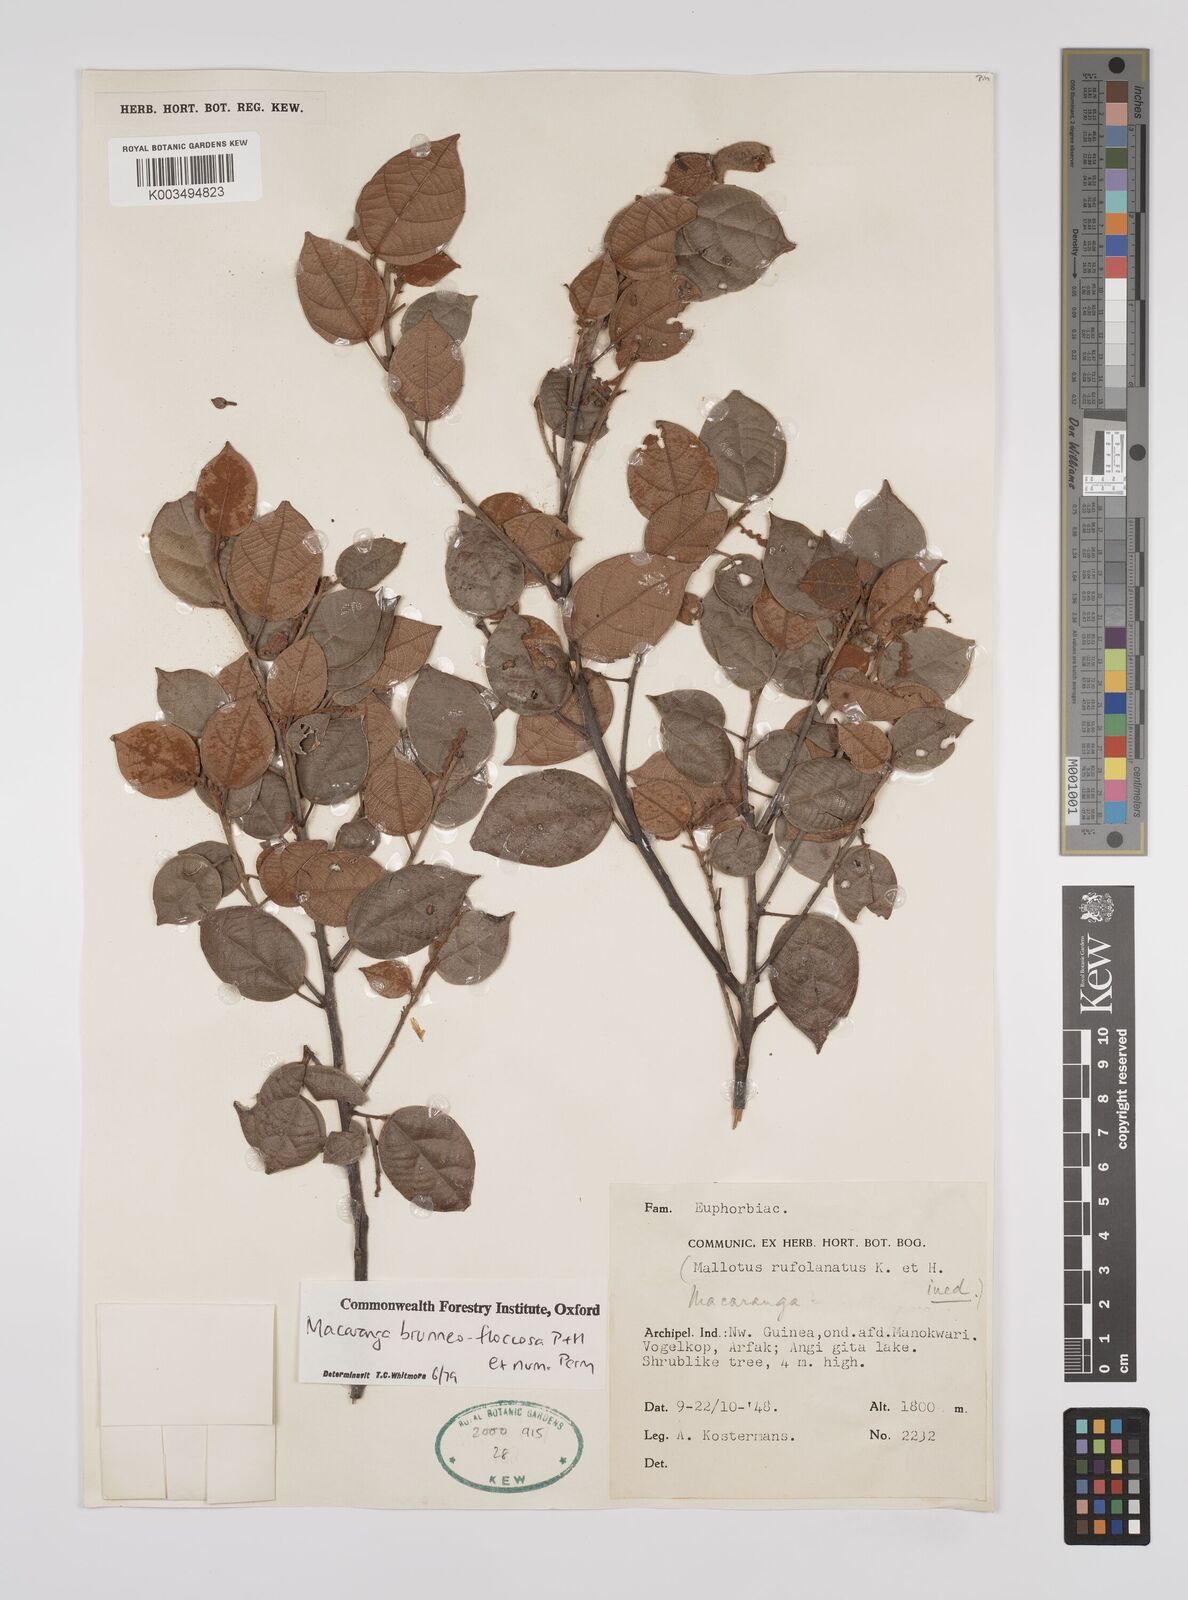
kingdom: Plantae
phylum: Tracheophyta
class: Magnoliopsida
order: Malpighiales
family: Euphorbiaceae
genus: Macaranga
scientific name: Macaranga brunneofloccosa
